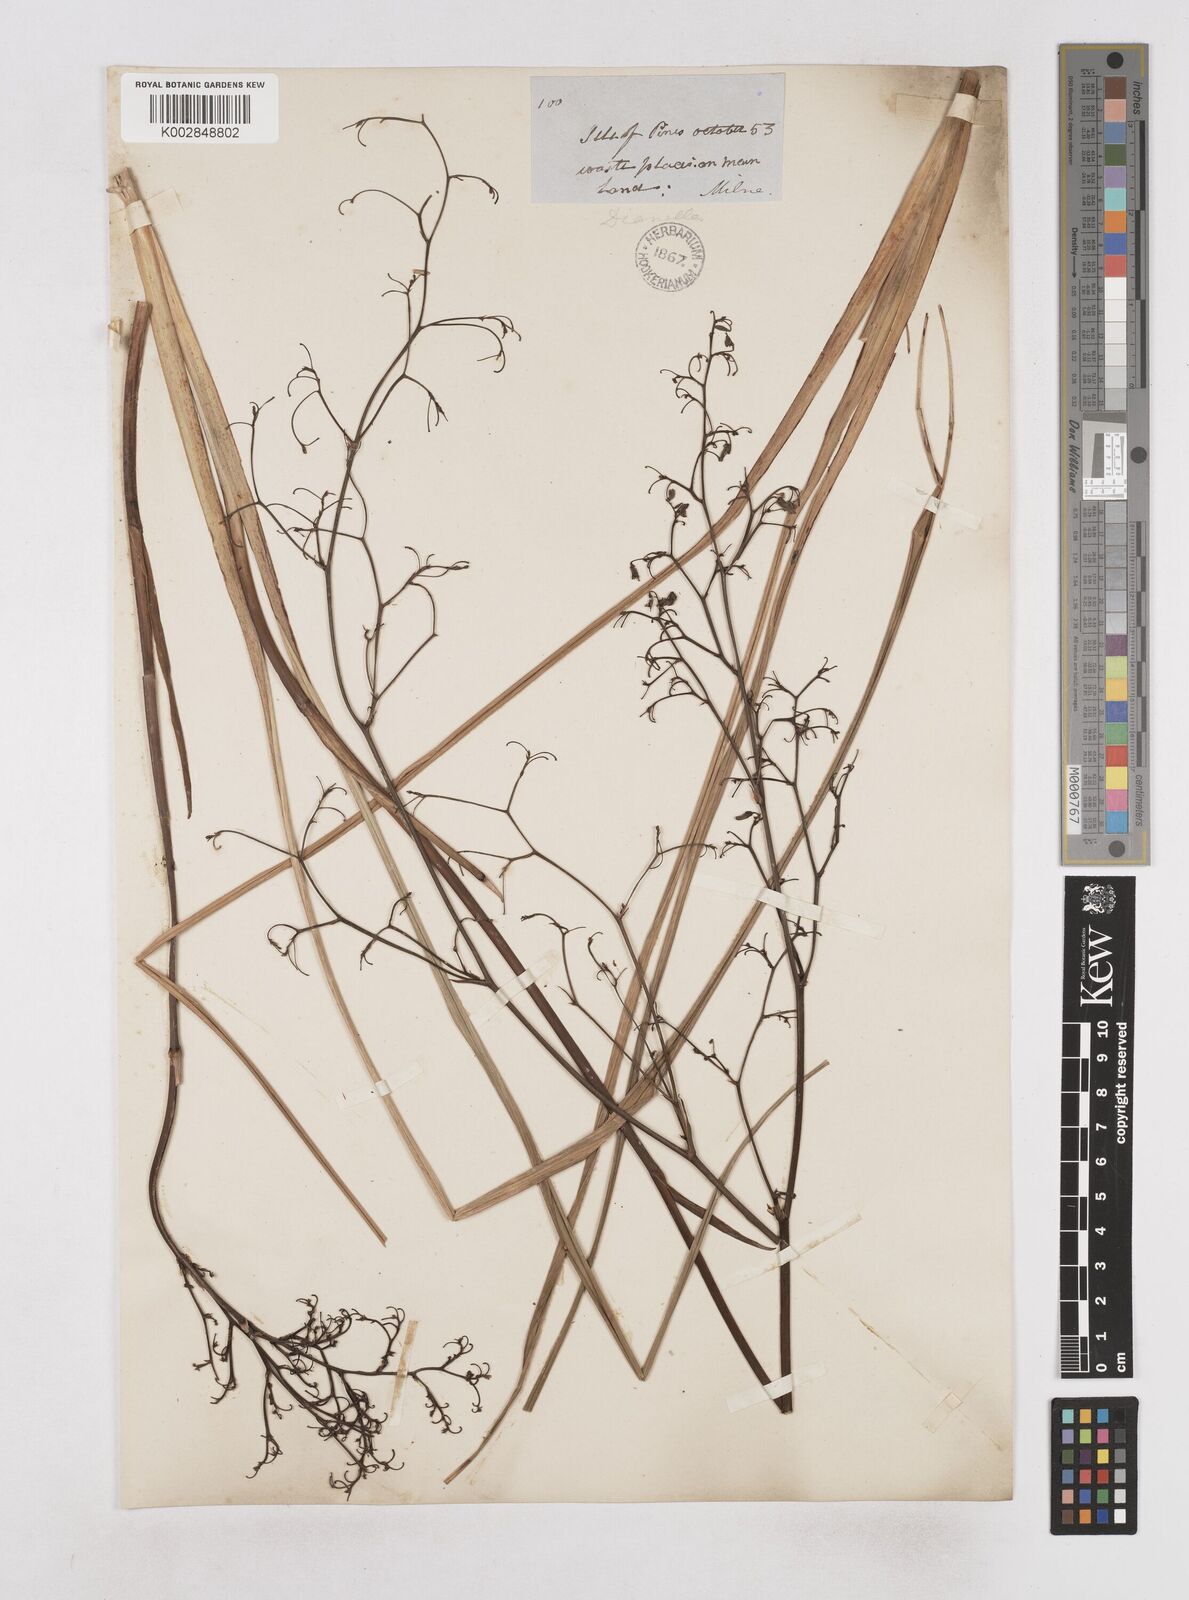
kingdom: Plantae
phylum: Tracheophyta
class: Liliopsida
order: Asparagales
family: Asphodelaceae
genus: Dianella
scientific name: Dianella adenanthera
